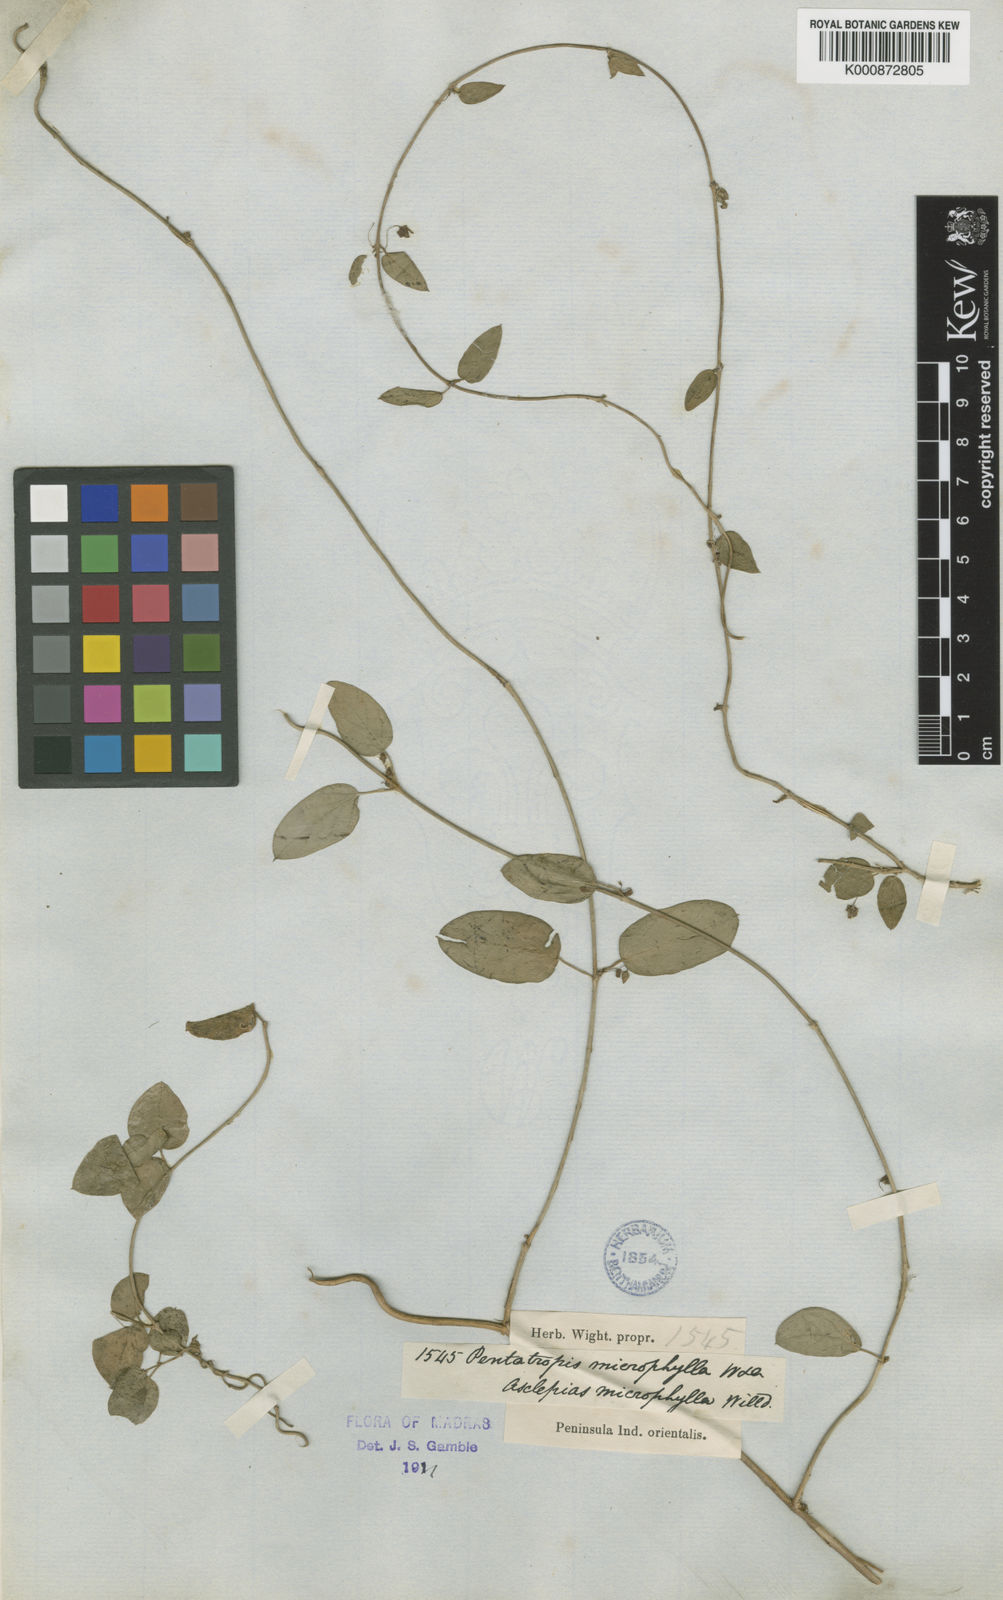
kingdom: Plantae
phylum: Tracheophyta
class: Magnoliopsida
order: Gentianales
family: Apocynaceae
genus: Pentatropis
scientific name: Pentatropis capensis
